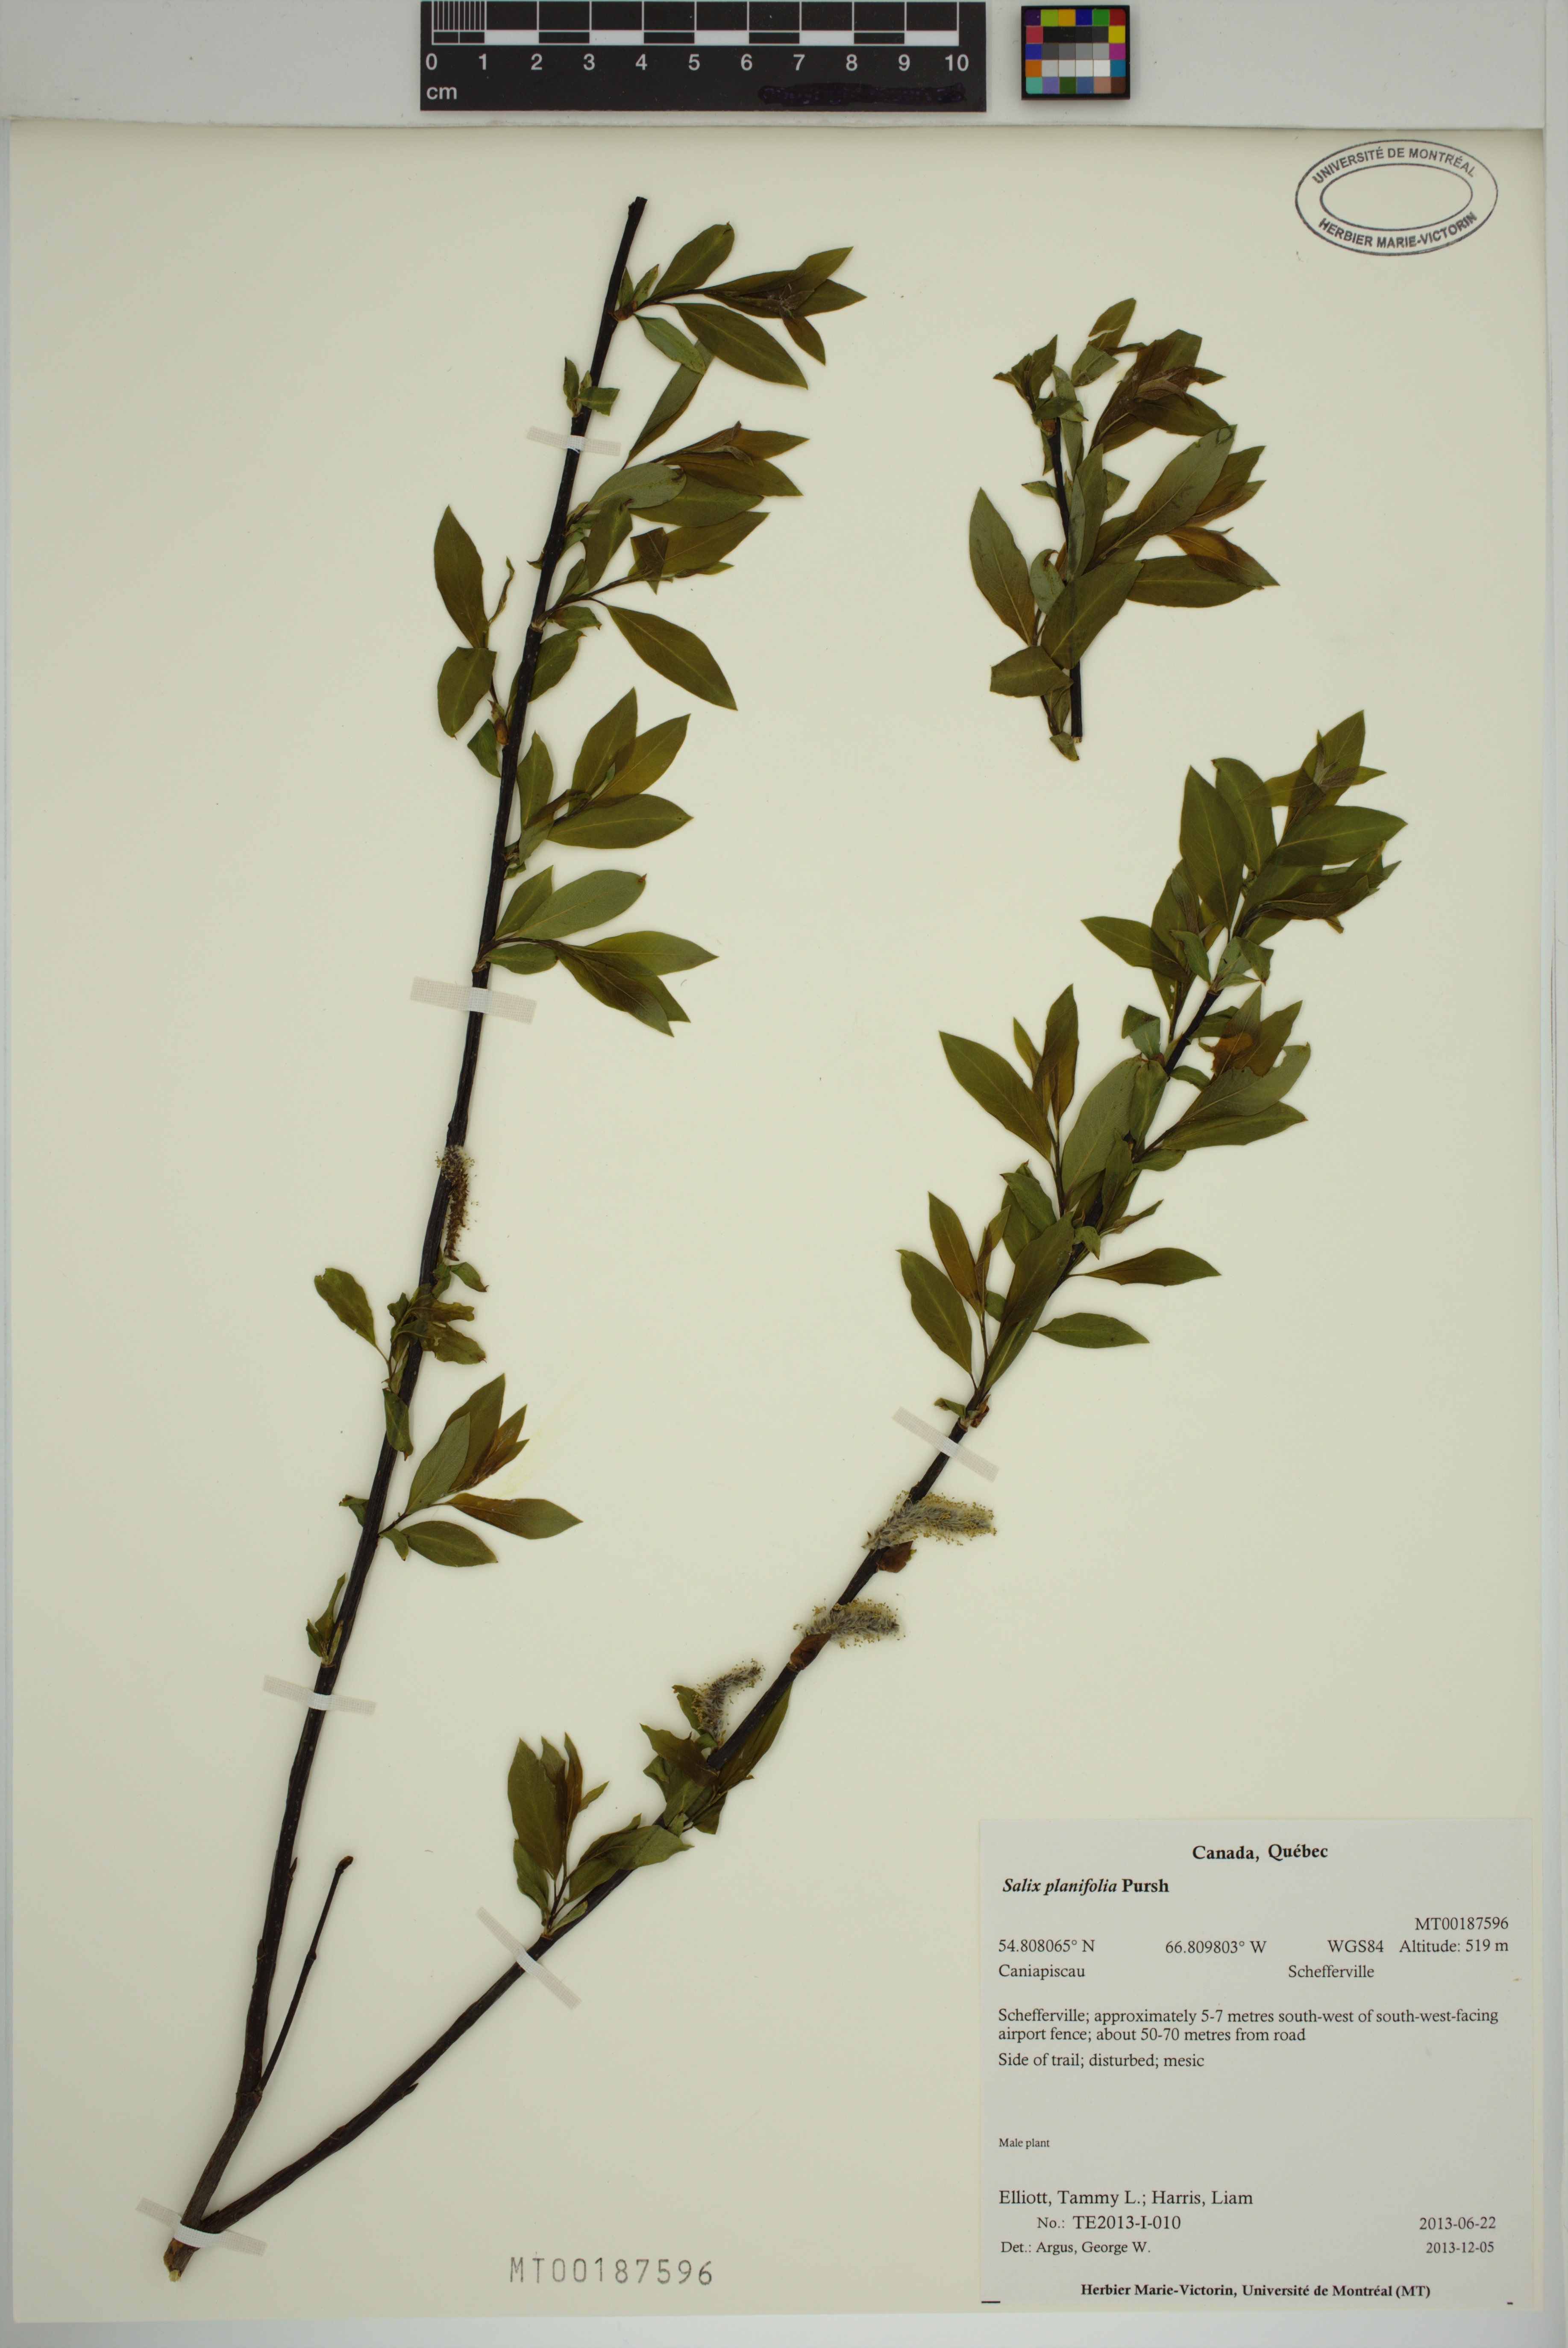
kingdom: Plantae
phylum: Tracheophyta
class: Magnoliopsida
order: Malpighiales
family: Salicaceae
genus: Salix
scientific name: Salix planifolia
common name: Mountain willow
